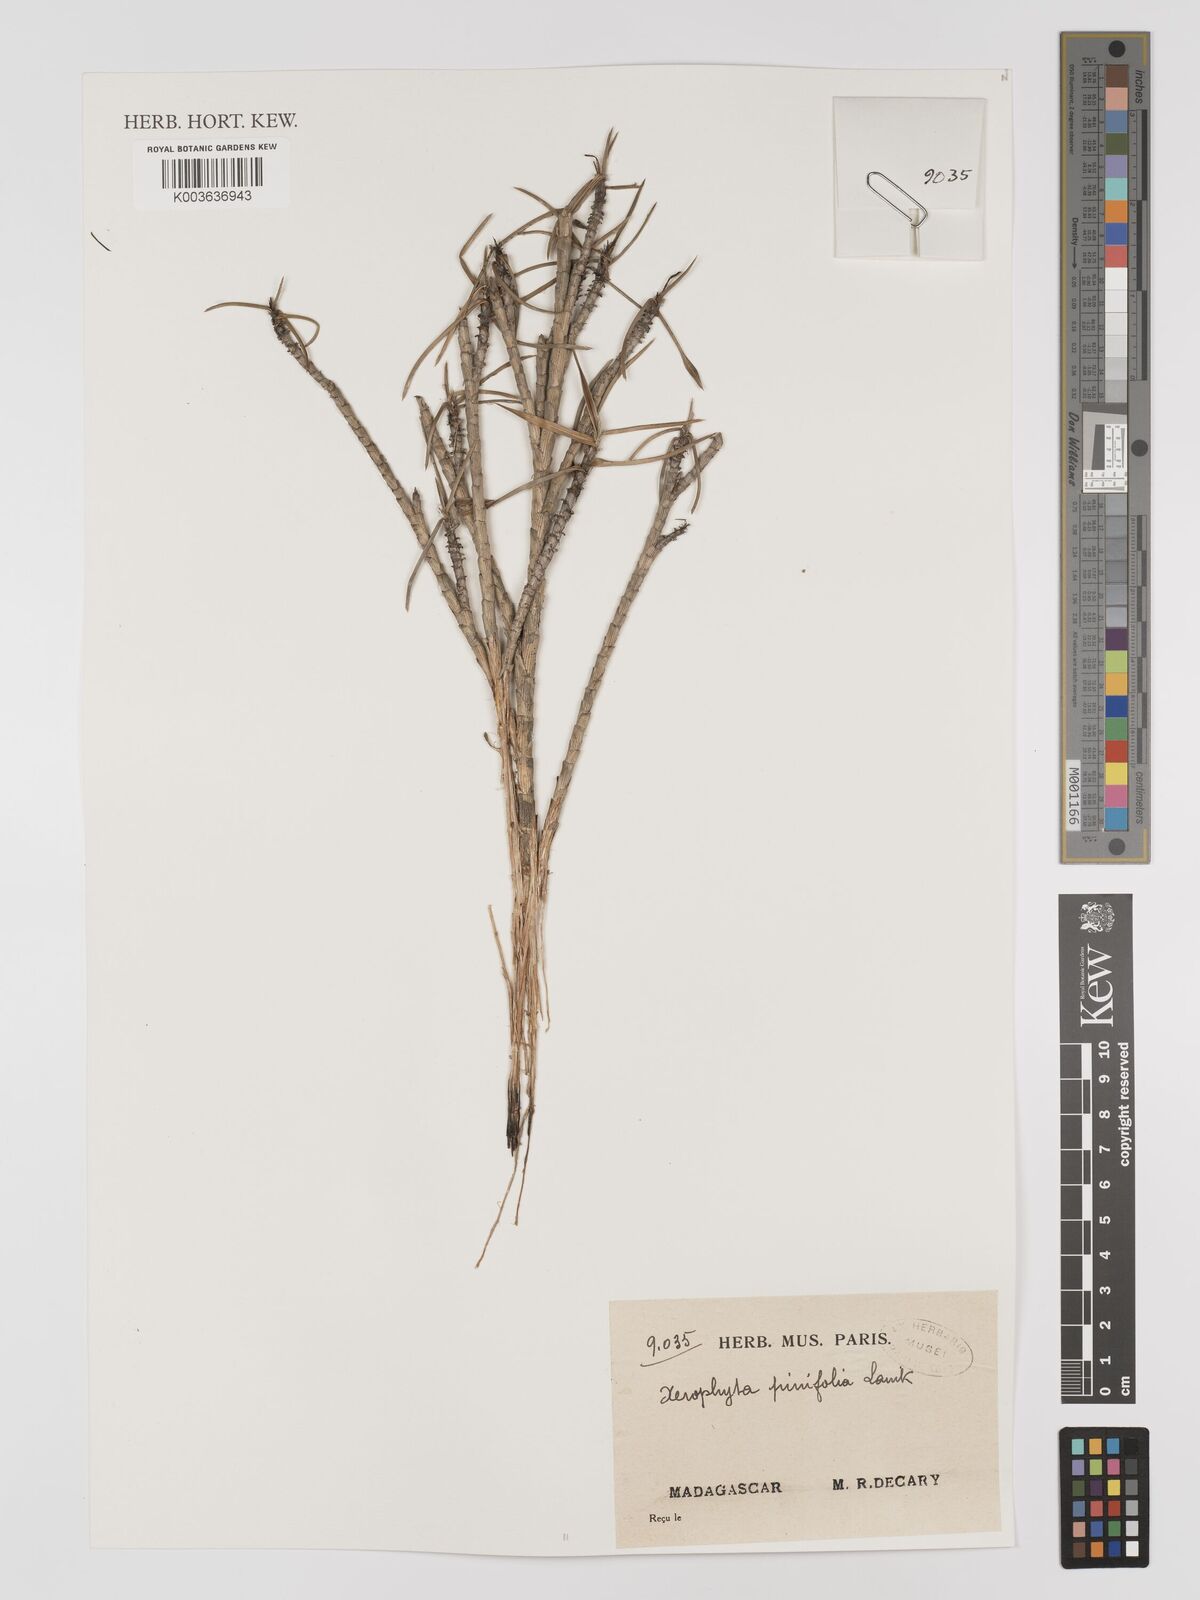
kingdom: Plantae
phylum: Tracheophyta
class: Liliopsida
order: Pandanales
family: Velloziaceae
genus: Xerophyta
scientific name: Xerophyta pinifolia
